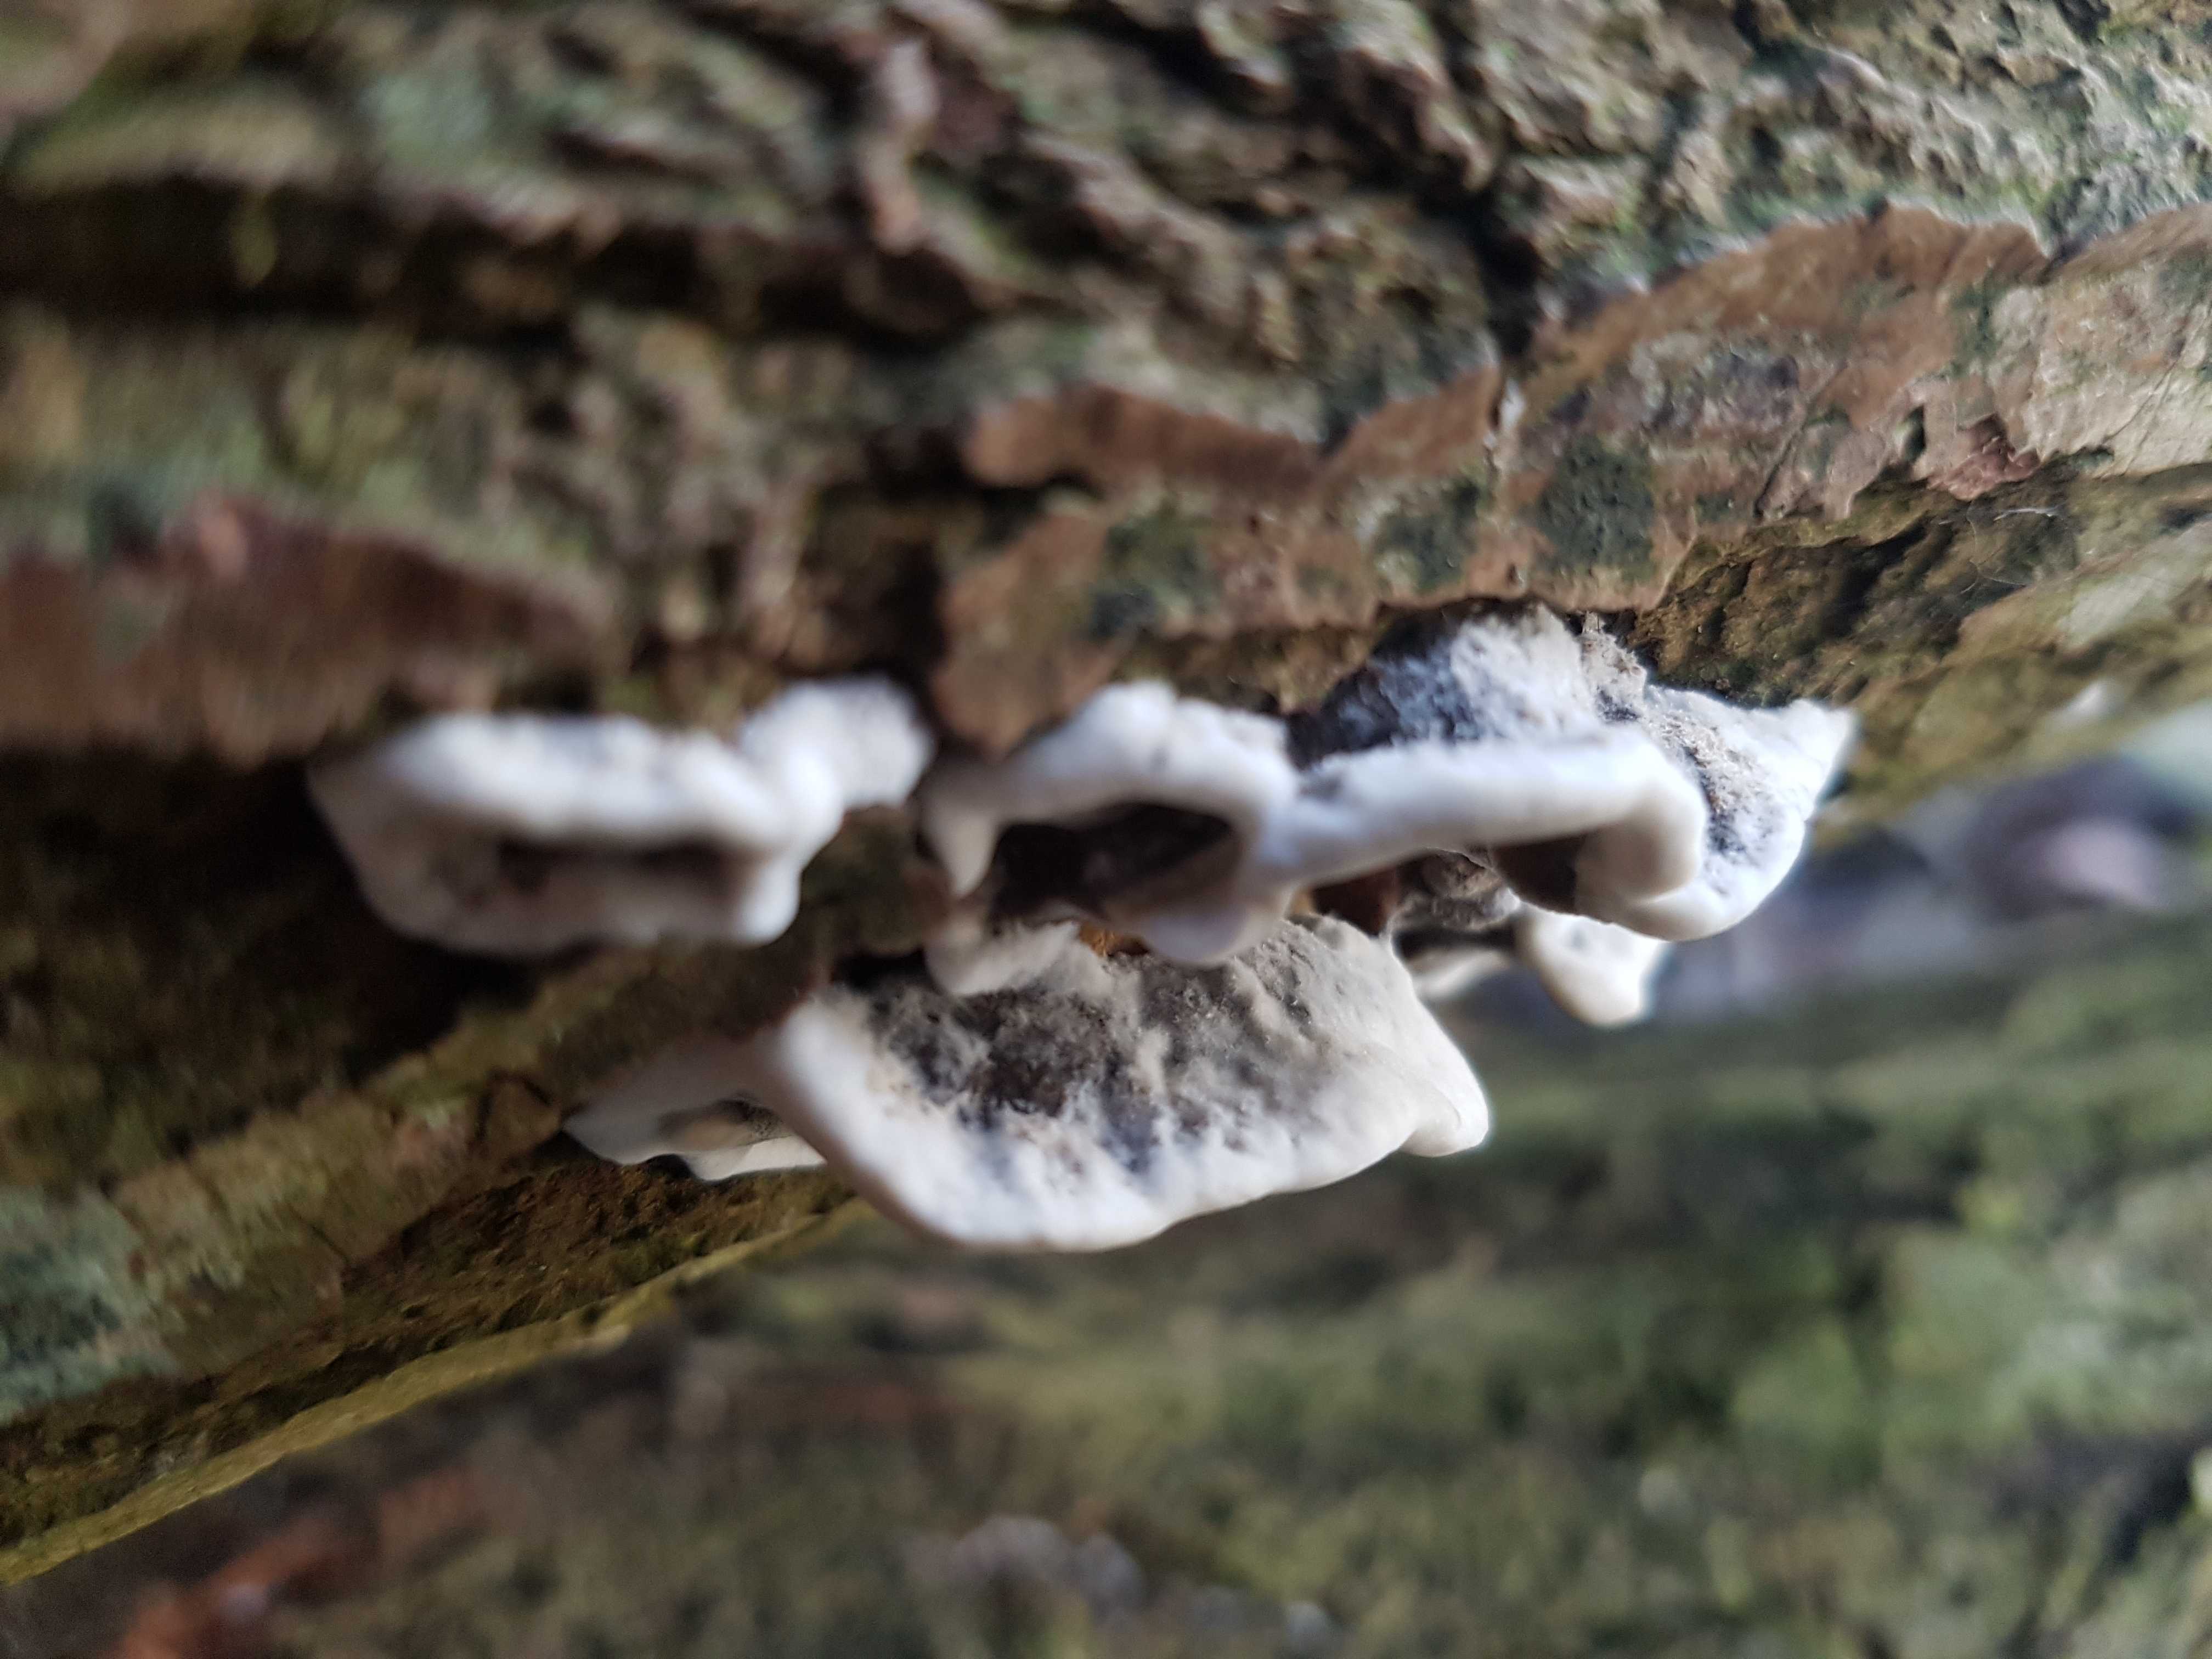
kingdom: Fungi
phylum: Basidiomycota
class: Agaricomycetes
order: Polyporales
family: Phanerochaetaceae
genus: Bjerkandera
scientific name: Bjerkandera adusta
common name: sveden sodporesvamp
